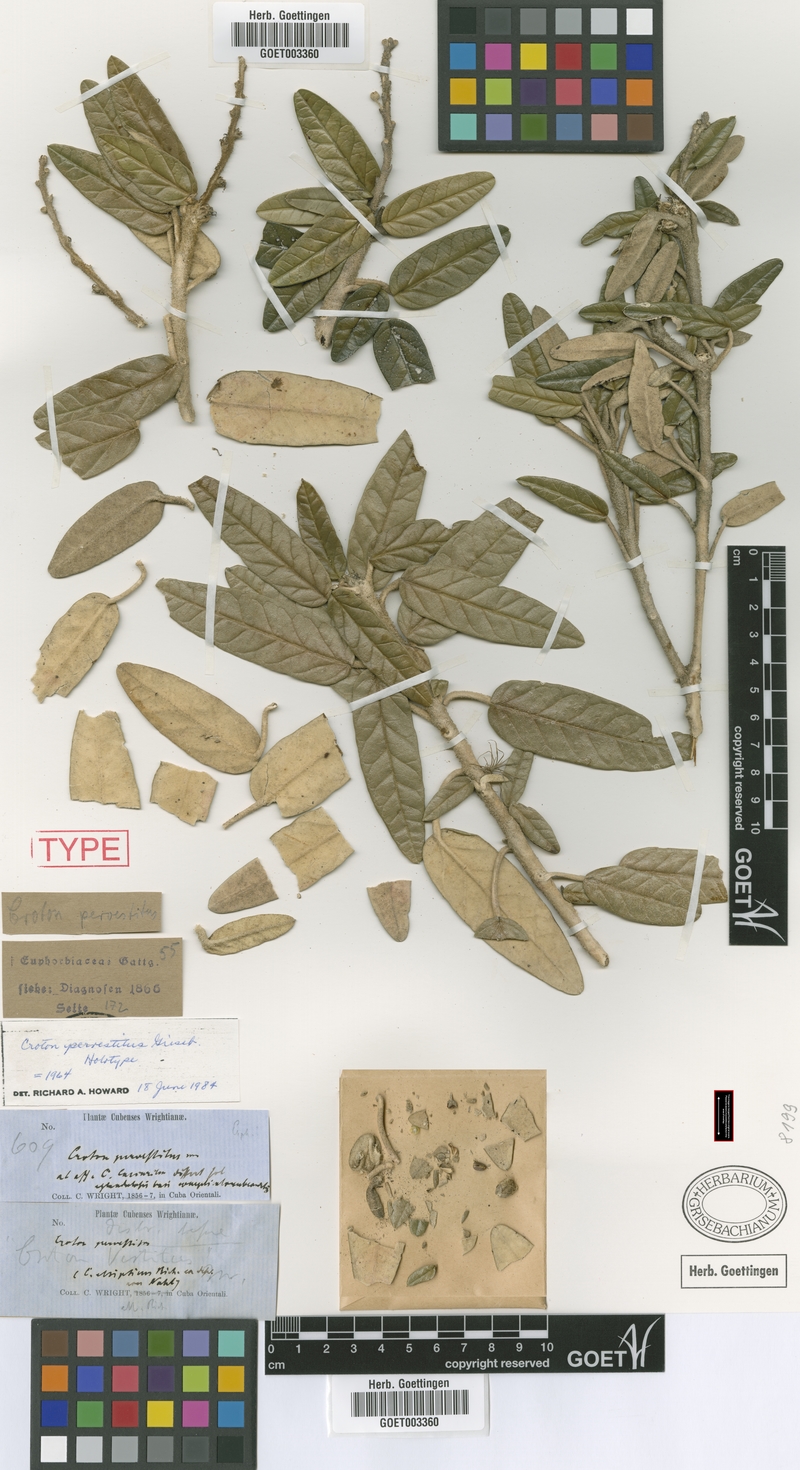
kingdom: Plantae
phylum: Tracheophyta
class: Magnoliopsida
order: Malpighiales
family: Euphorbiaceae
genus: Croton
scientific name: Croton pervestitus
